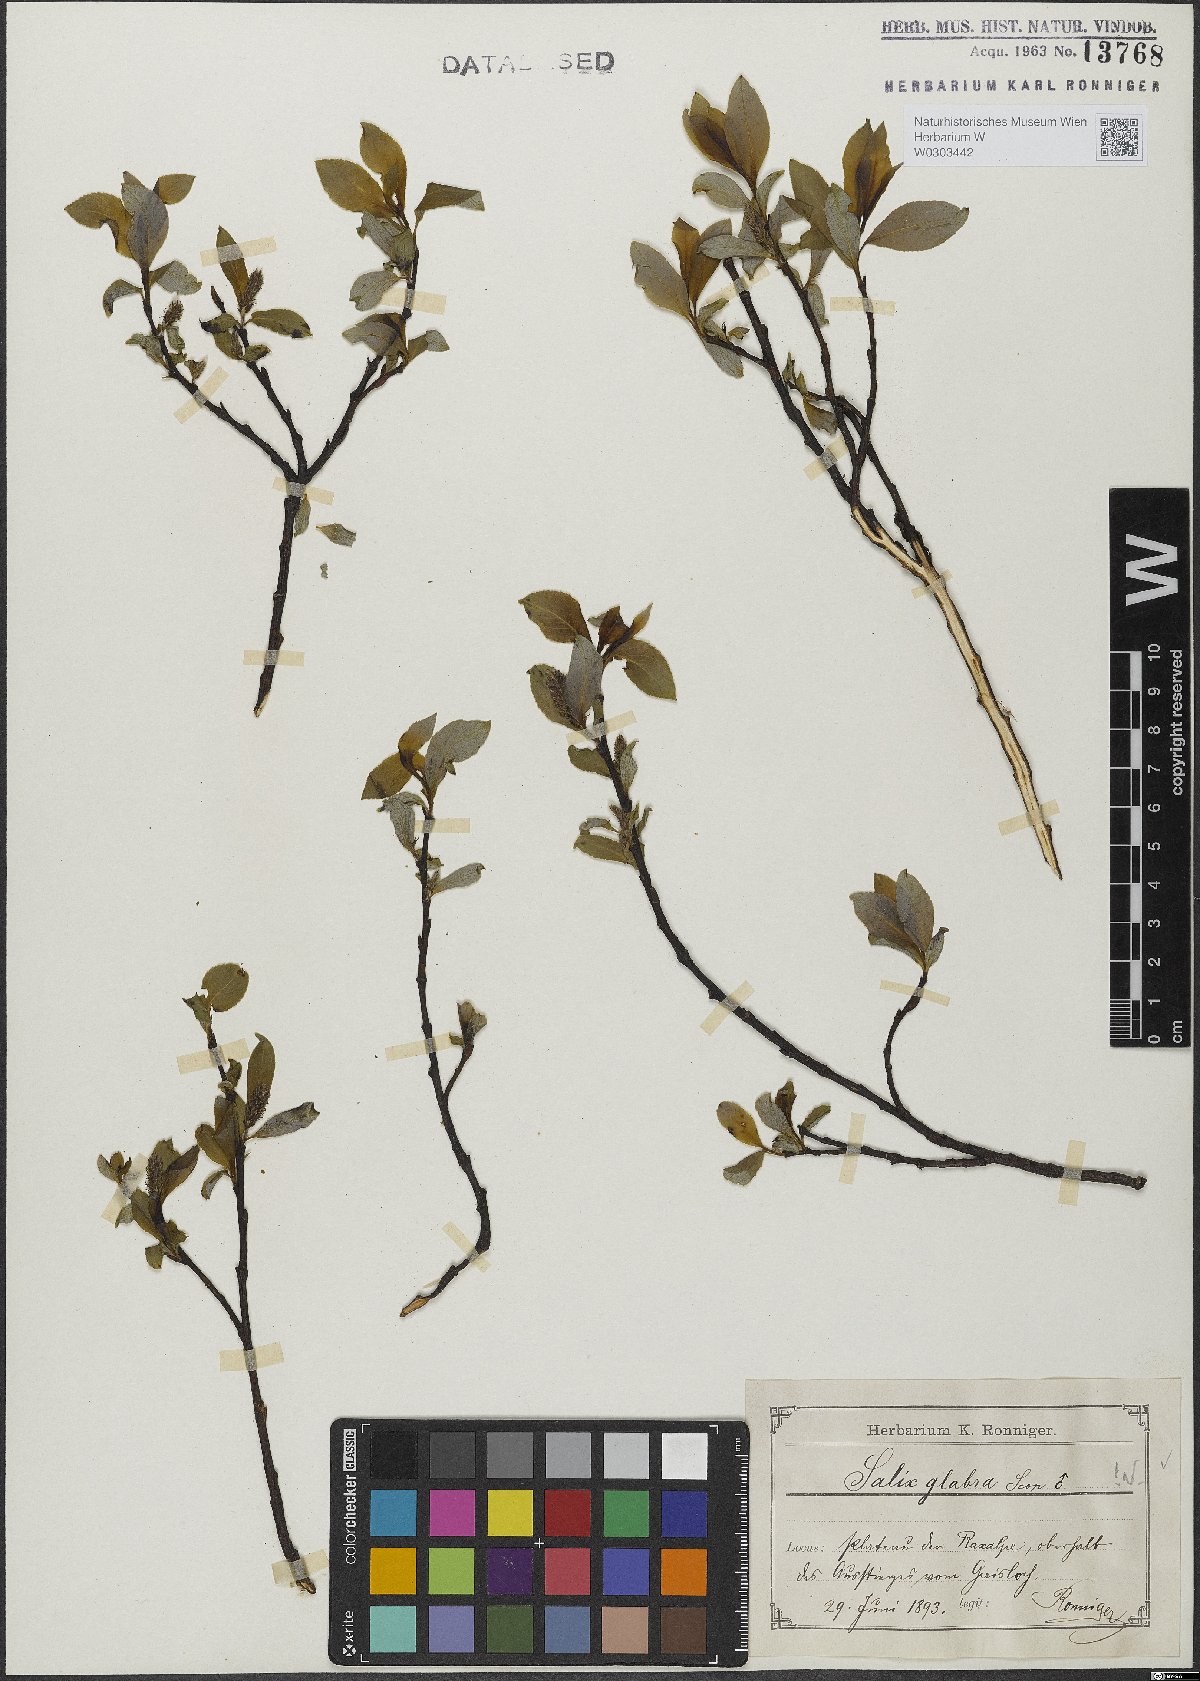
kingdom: Plantae
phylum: Tracheophyta
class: Magnoliopsida
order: Malpighiales
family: Salicaceae
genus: Salix
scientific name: Salix glabra
